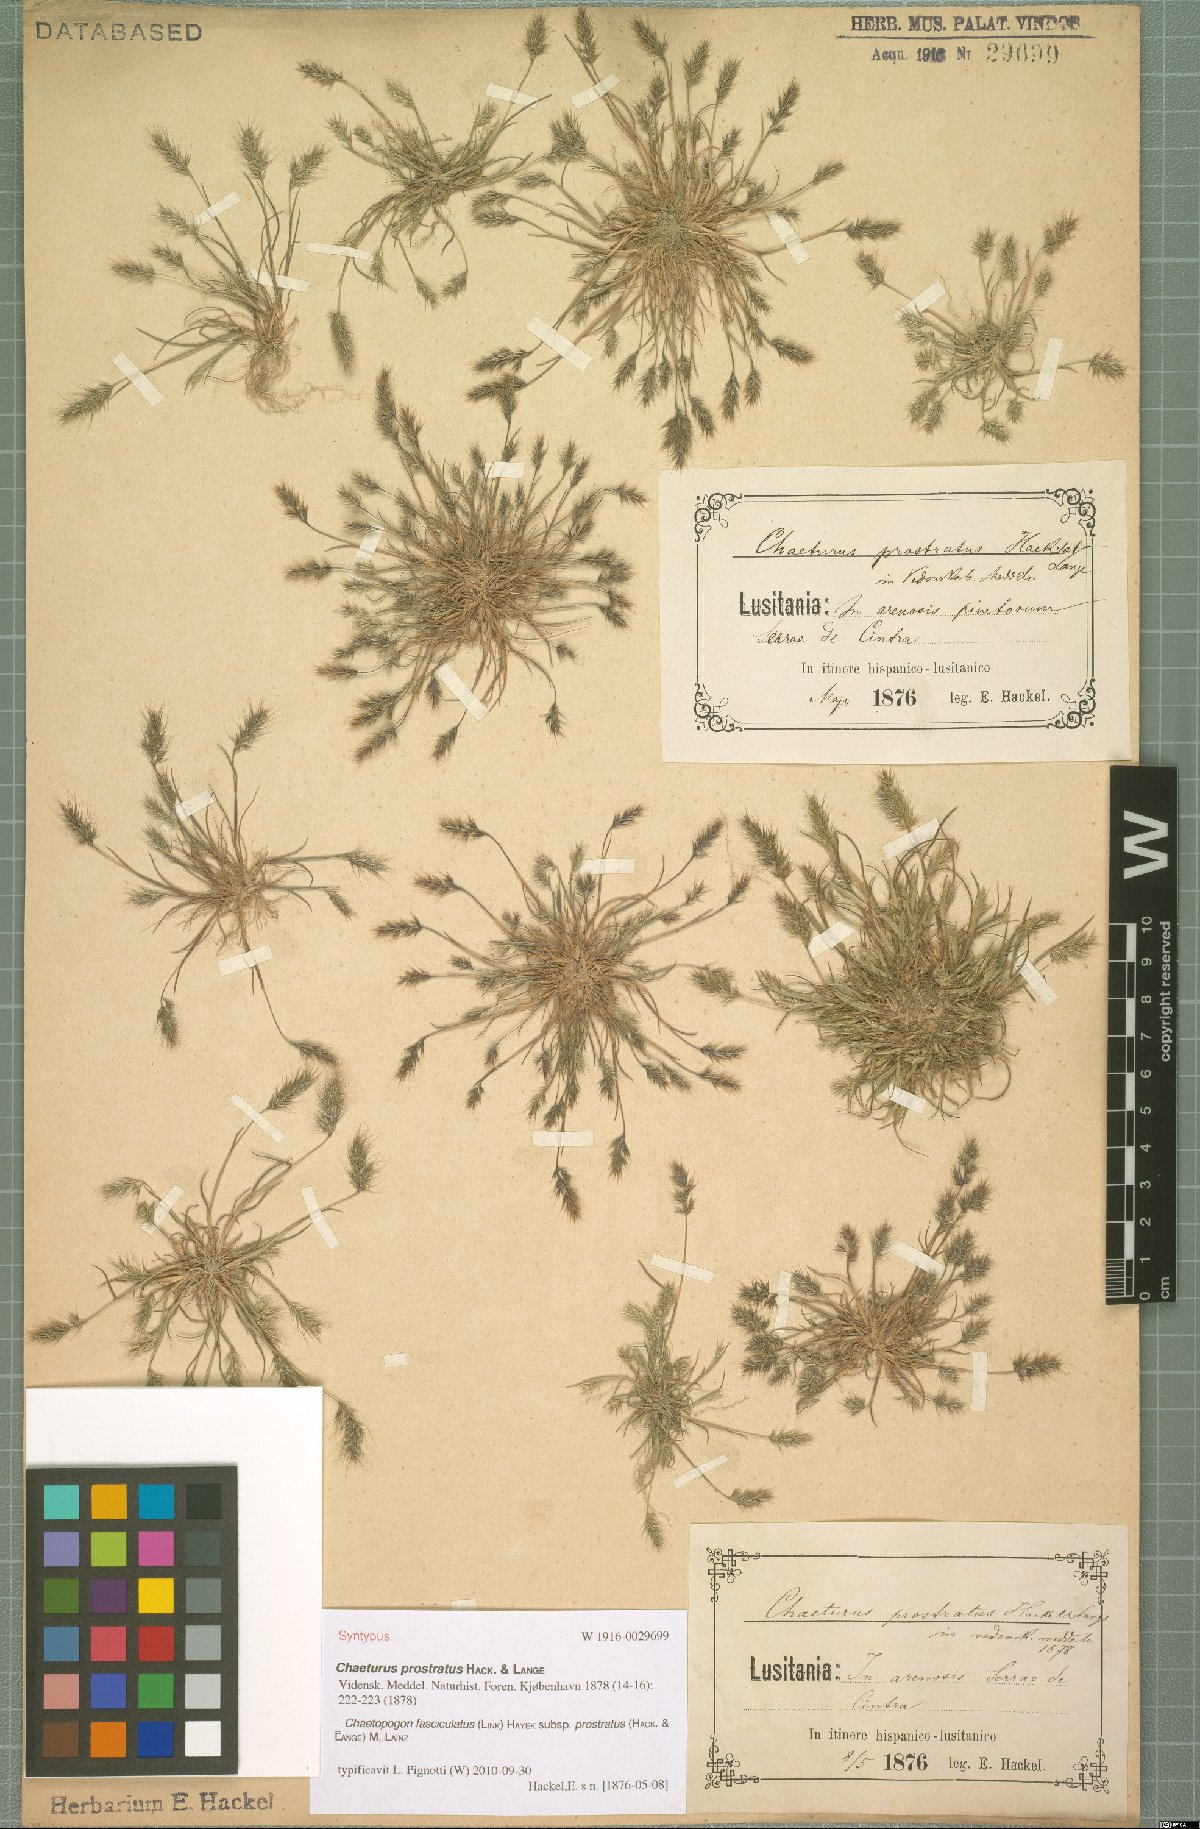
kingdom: Plantae
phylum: Tracheophyta
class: Liliopsida
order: Poales
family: Poaceae
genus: Agrostis
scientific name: Agrostis subspicata
